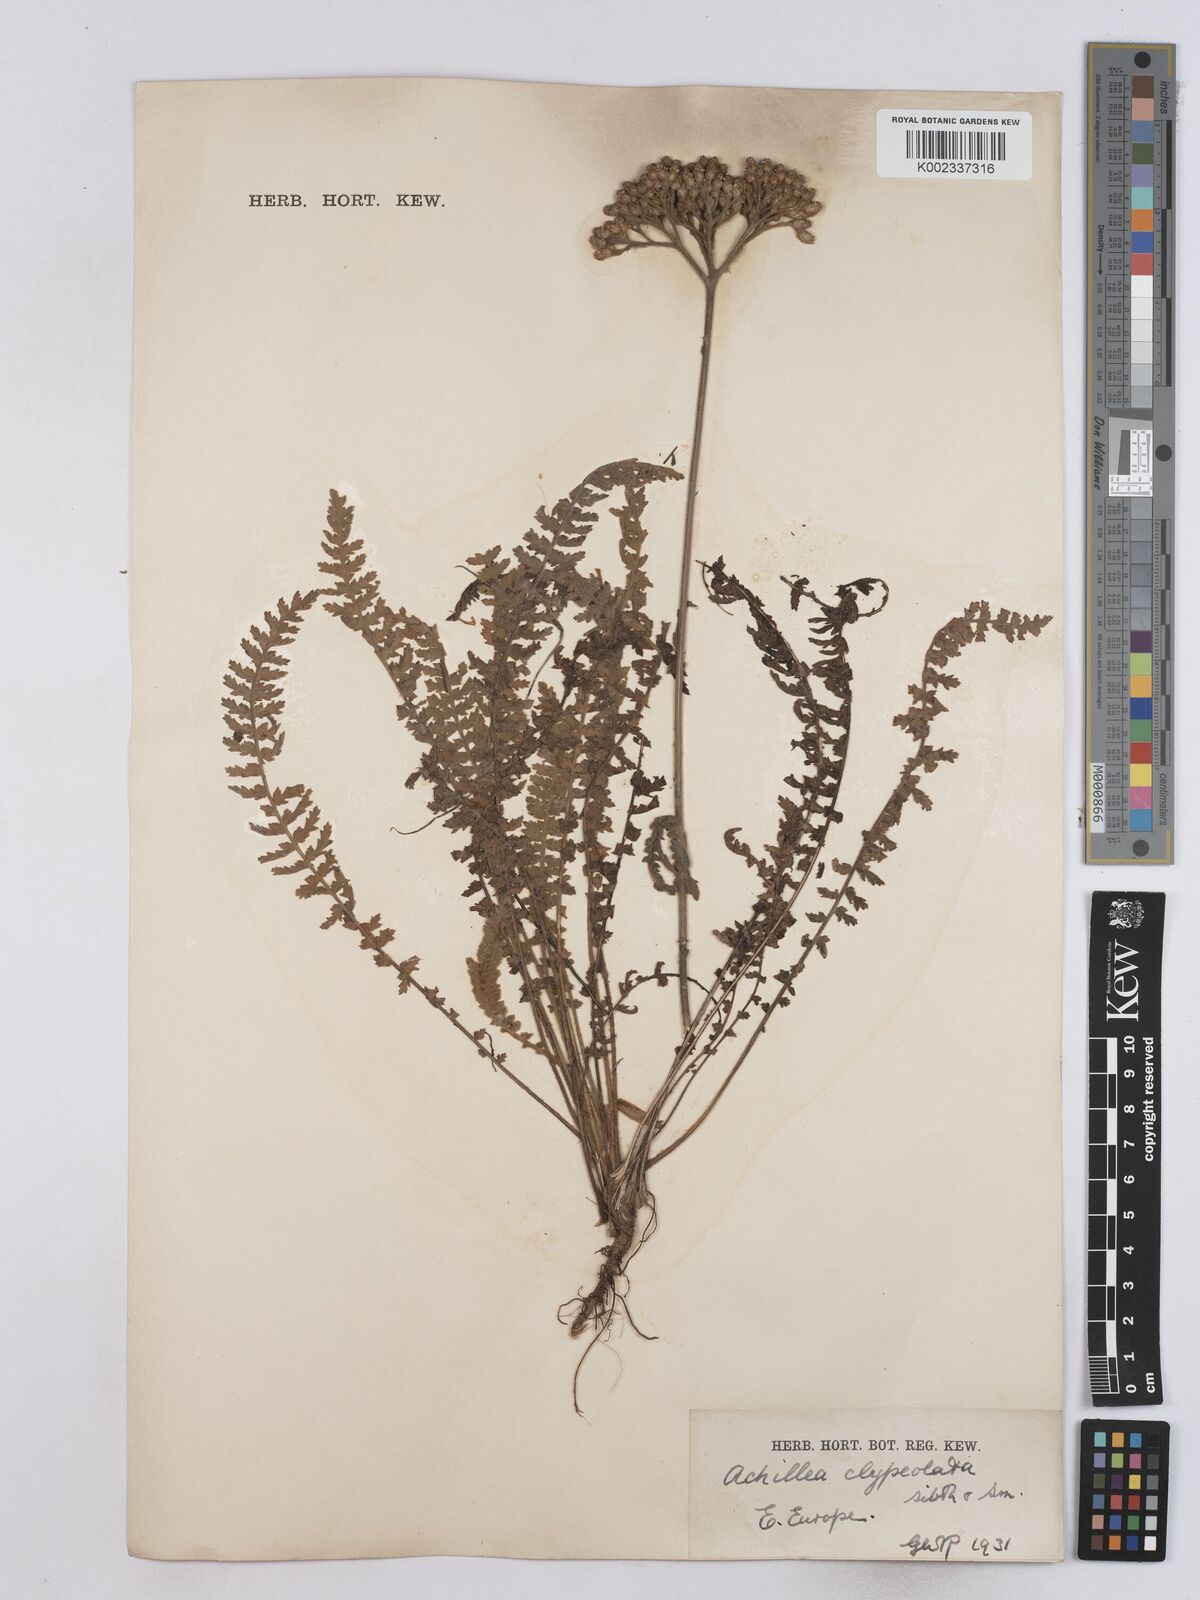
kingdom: Plantae
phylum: Tracheophyta
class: Magnoliopsida
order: Asterales
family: Asteraceae
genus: Achillea
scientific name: Achillea clypeolata
